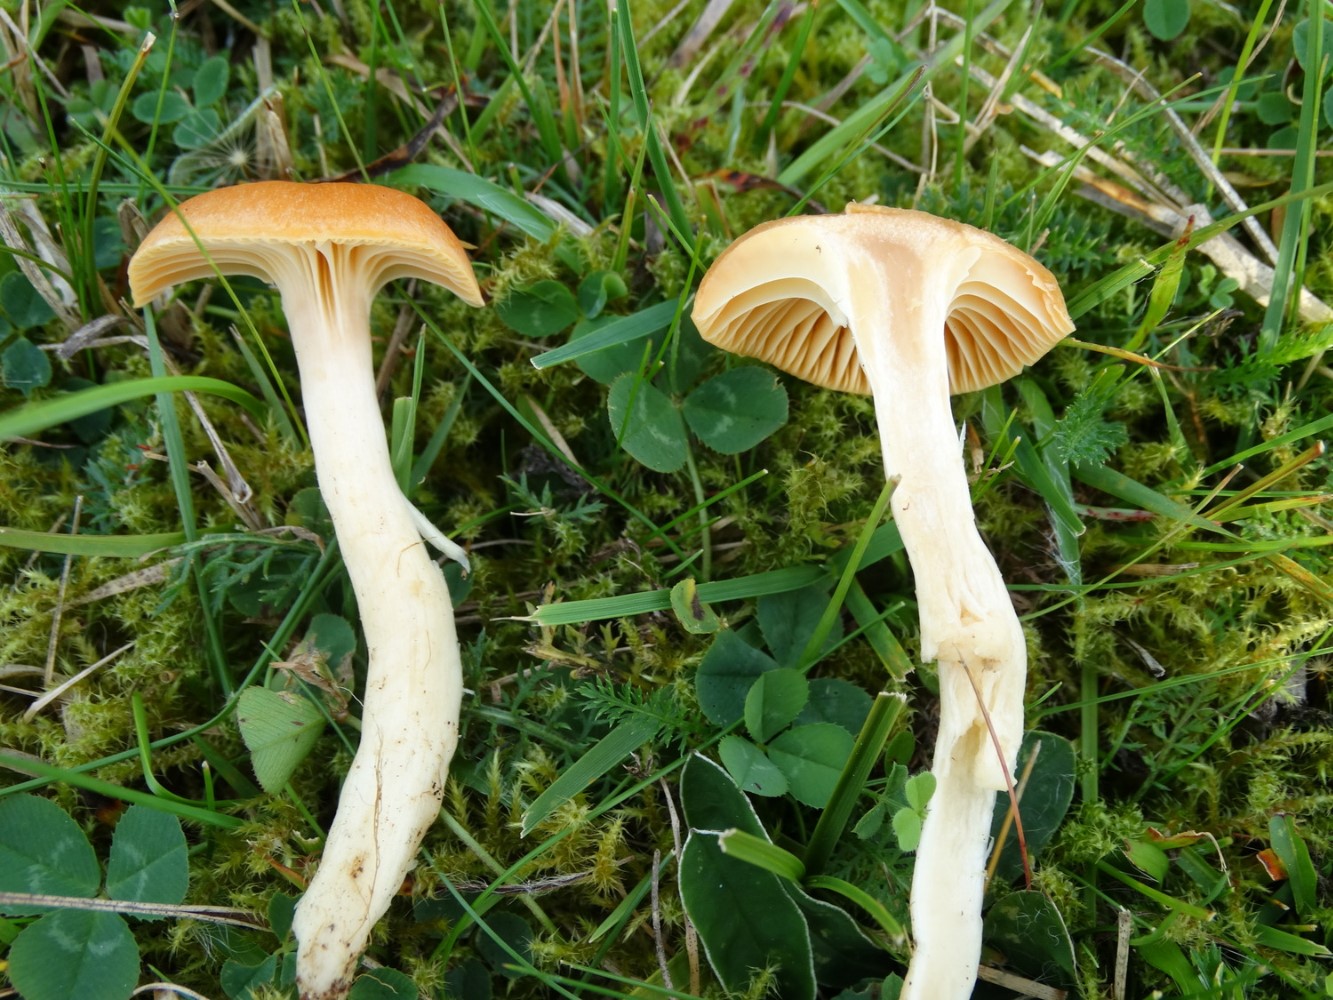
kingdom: Fungi
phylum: Basidiomycota
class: Agaricomycetes
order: Agaricales
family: Hygrophoraceae
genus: Cuphophyllus
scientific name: Cuphophyllus pratensis
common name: eng-vokshat
